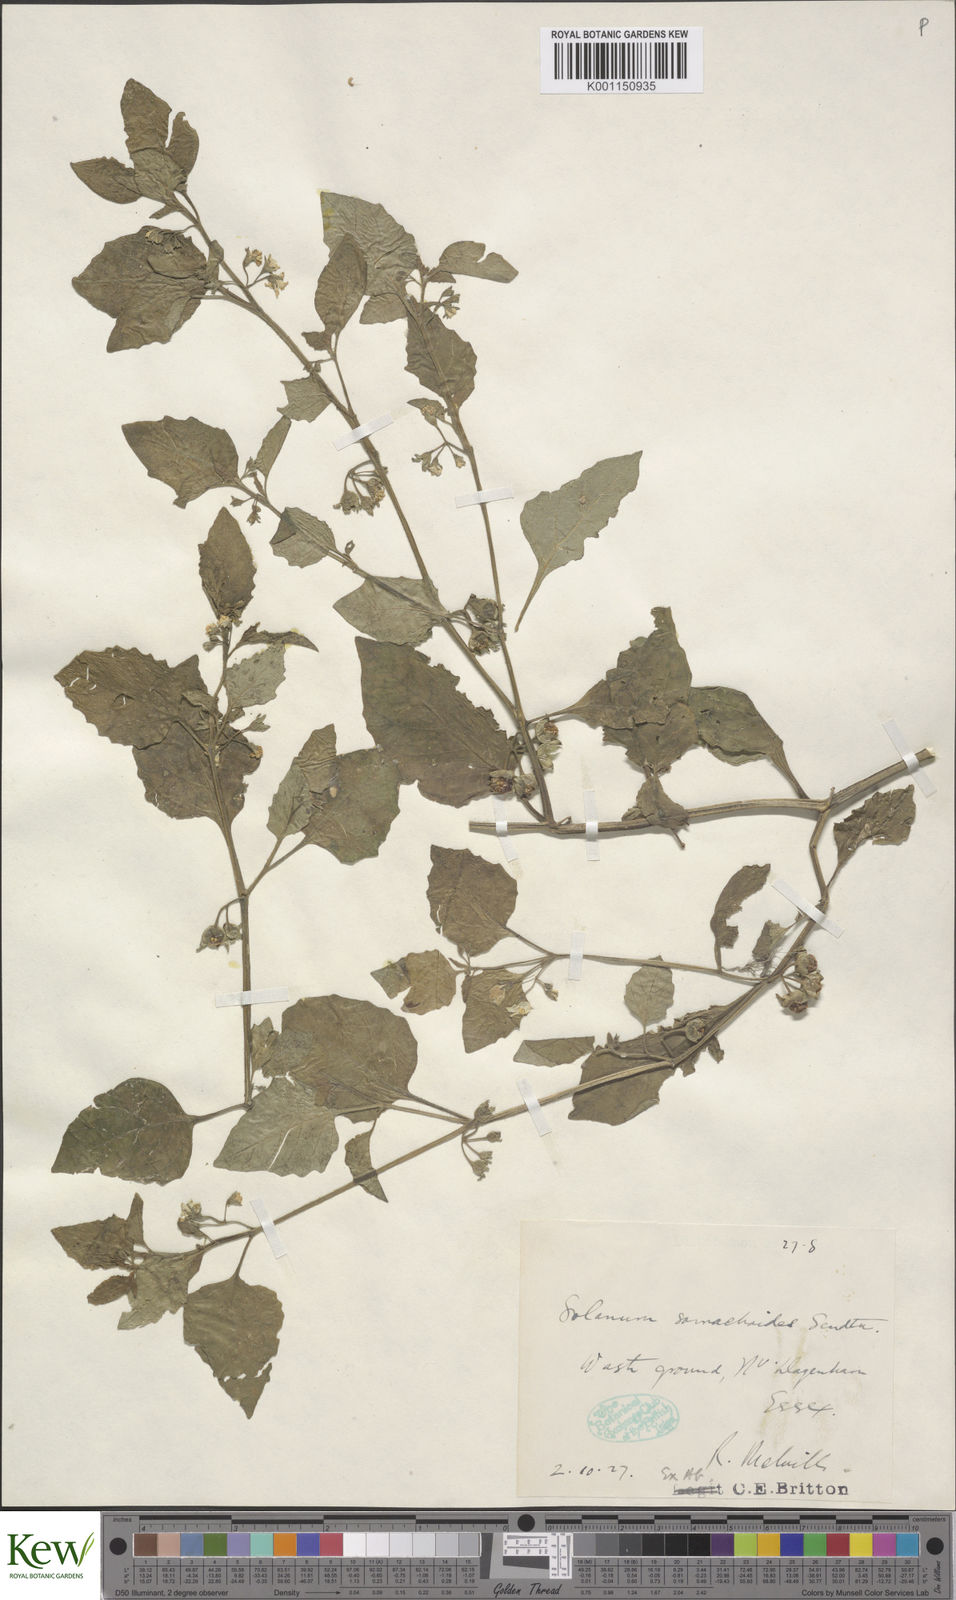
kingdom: Plantae
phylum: Tracheophyta
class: Magnoliopsida
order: Solanales
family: Solanaceae
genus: Solanum
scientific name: Solanum sarrachoides
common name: Leafy-fruited nightshade
